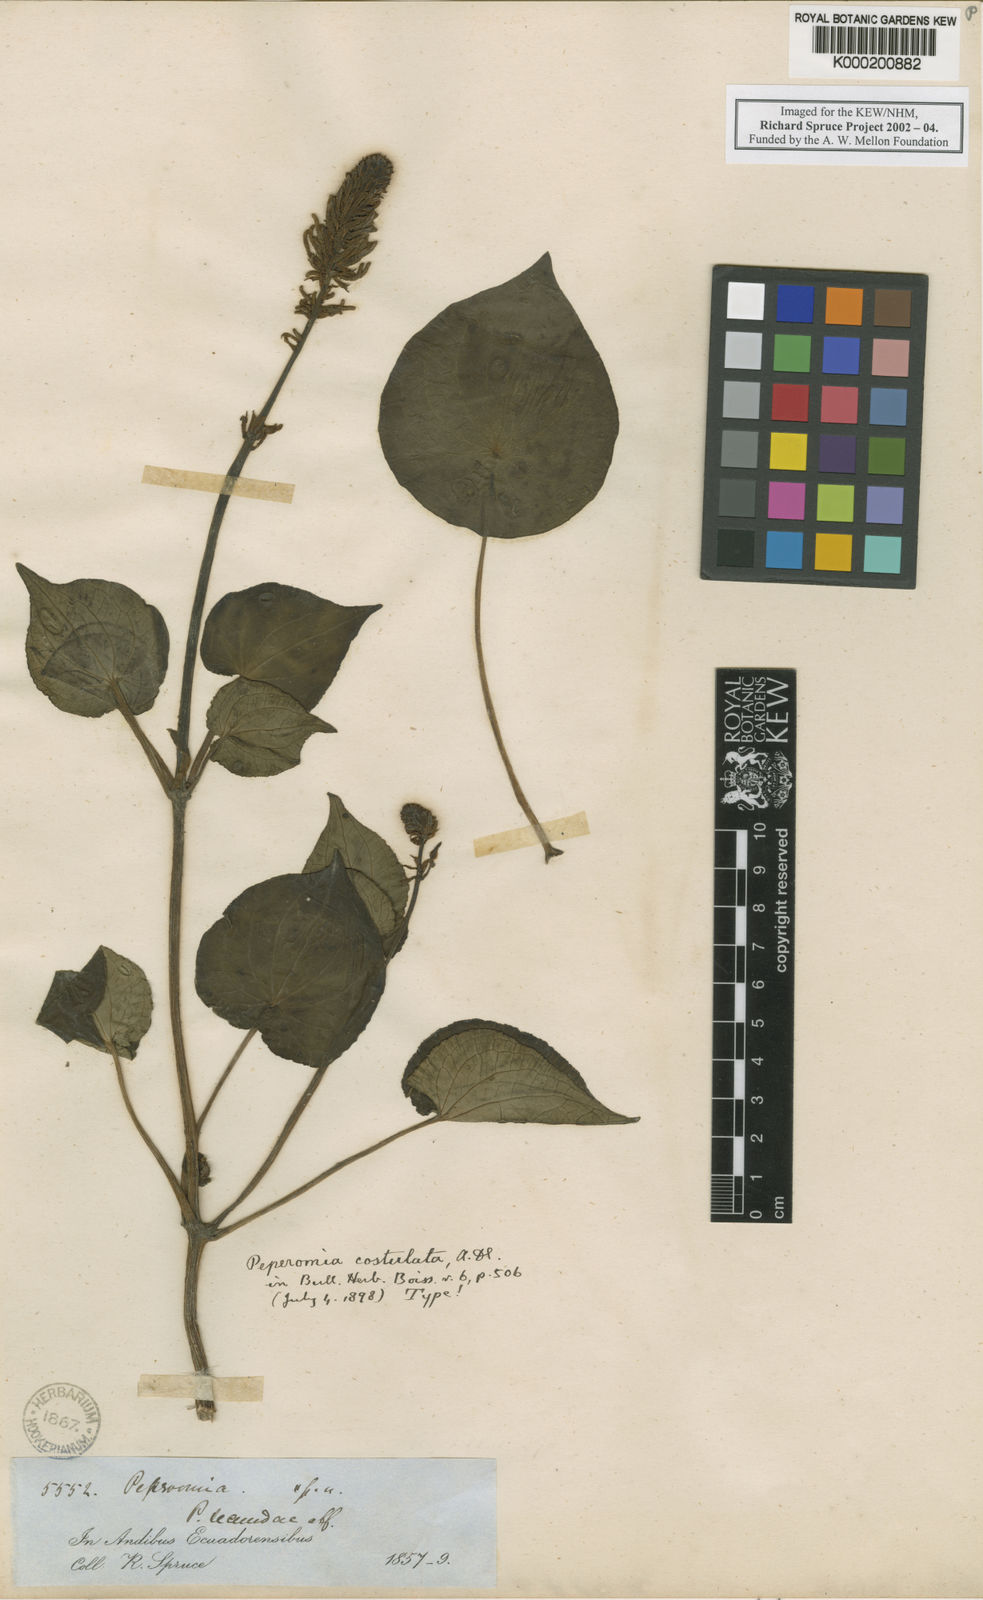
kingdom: Plantae
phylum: Tracheophyta
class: Magnoliopsida
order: Piperales
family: Piperaceae
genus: Peperomia
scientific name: Peperomia sodiroi
